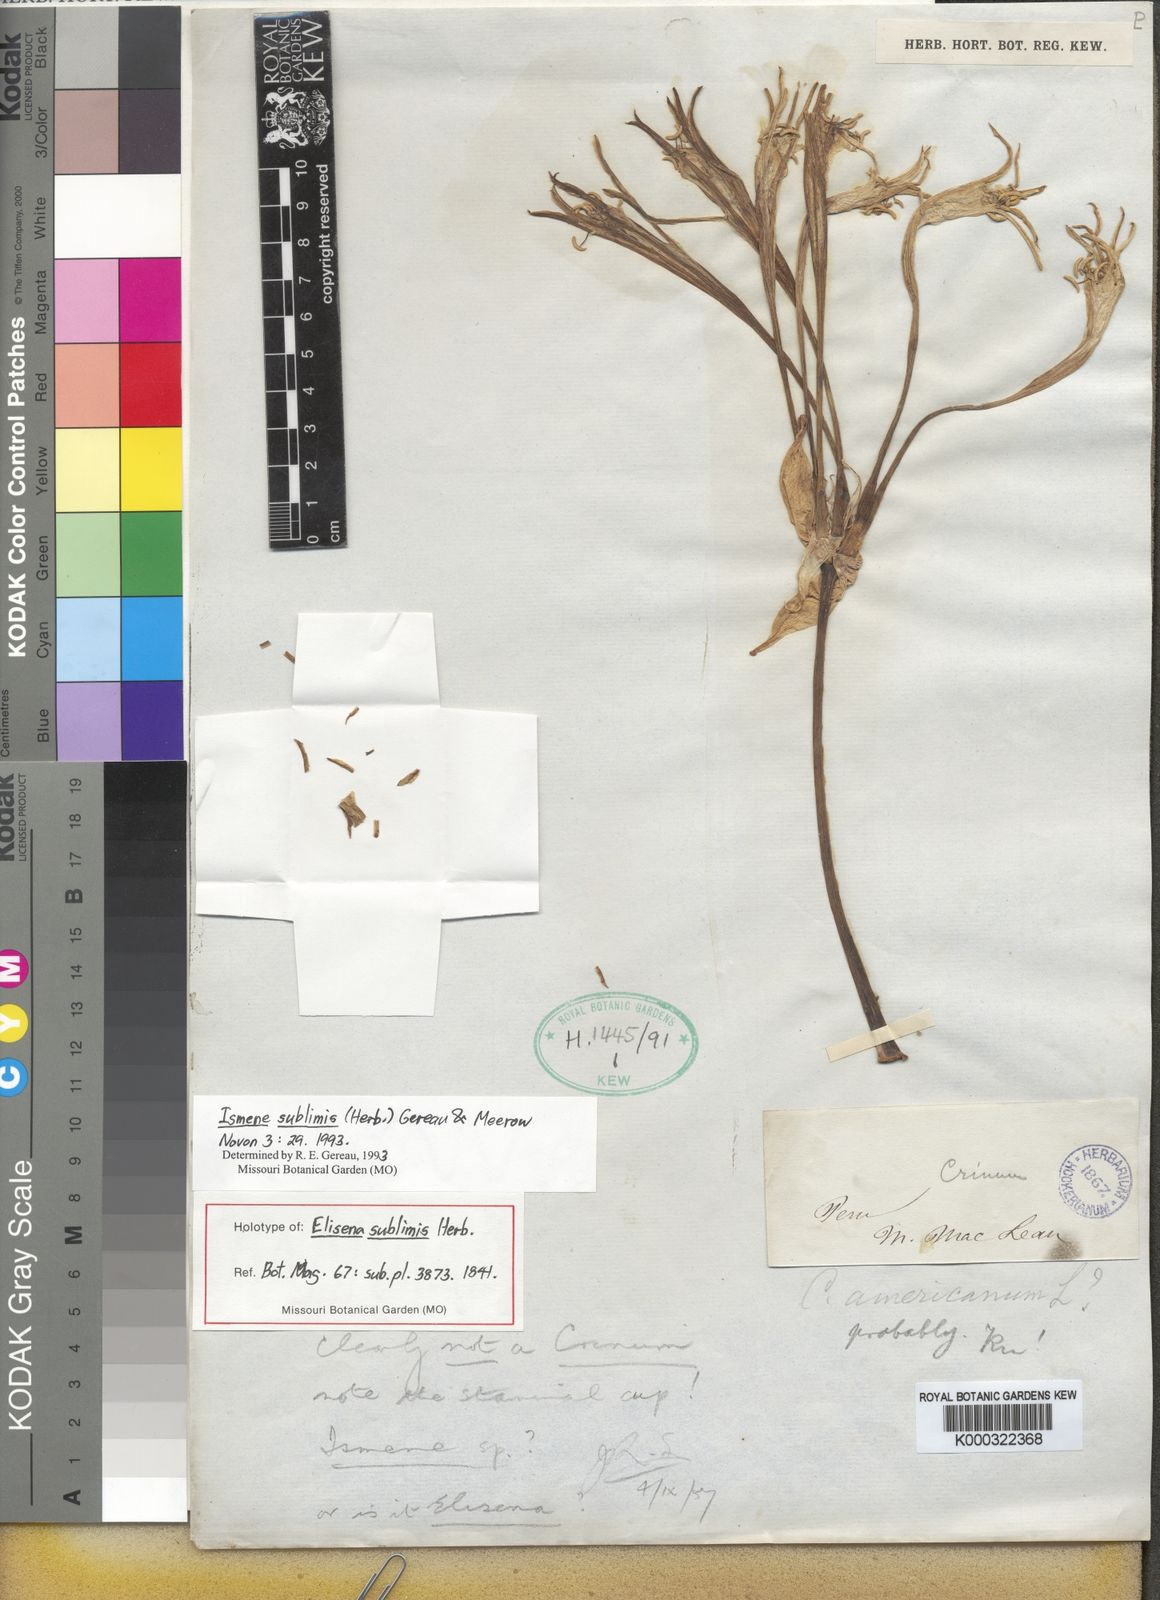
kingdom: Plantae
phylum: Tracheophyta
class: Liliopsida
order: Asparagales
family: Amaryllidaceae
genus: Ismene
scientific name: Ismene sublimis
